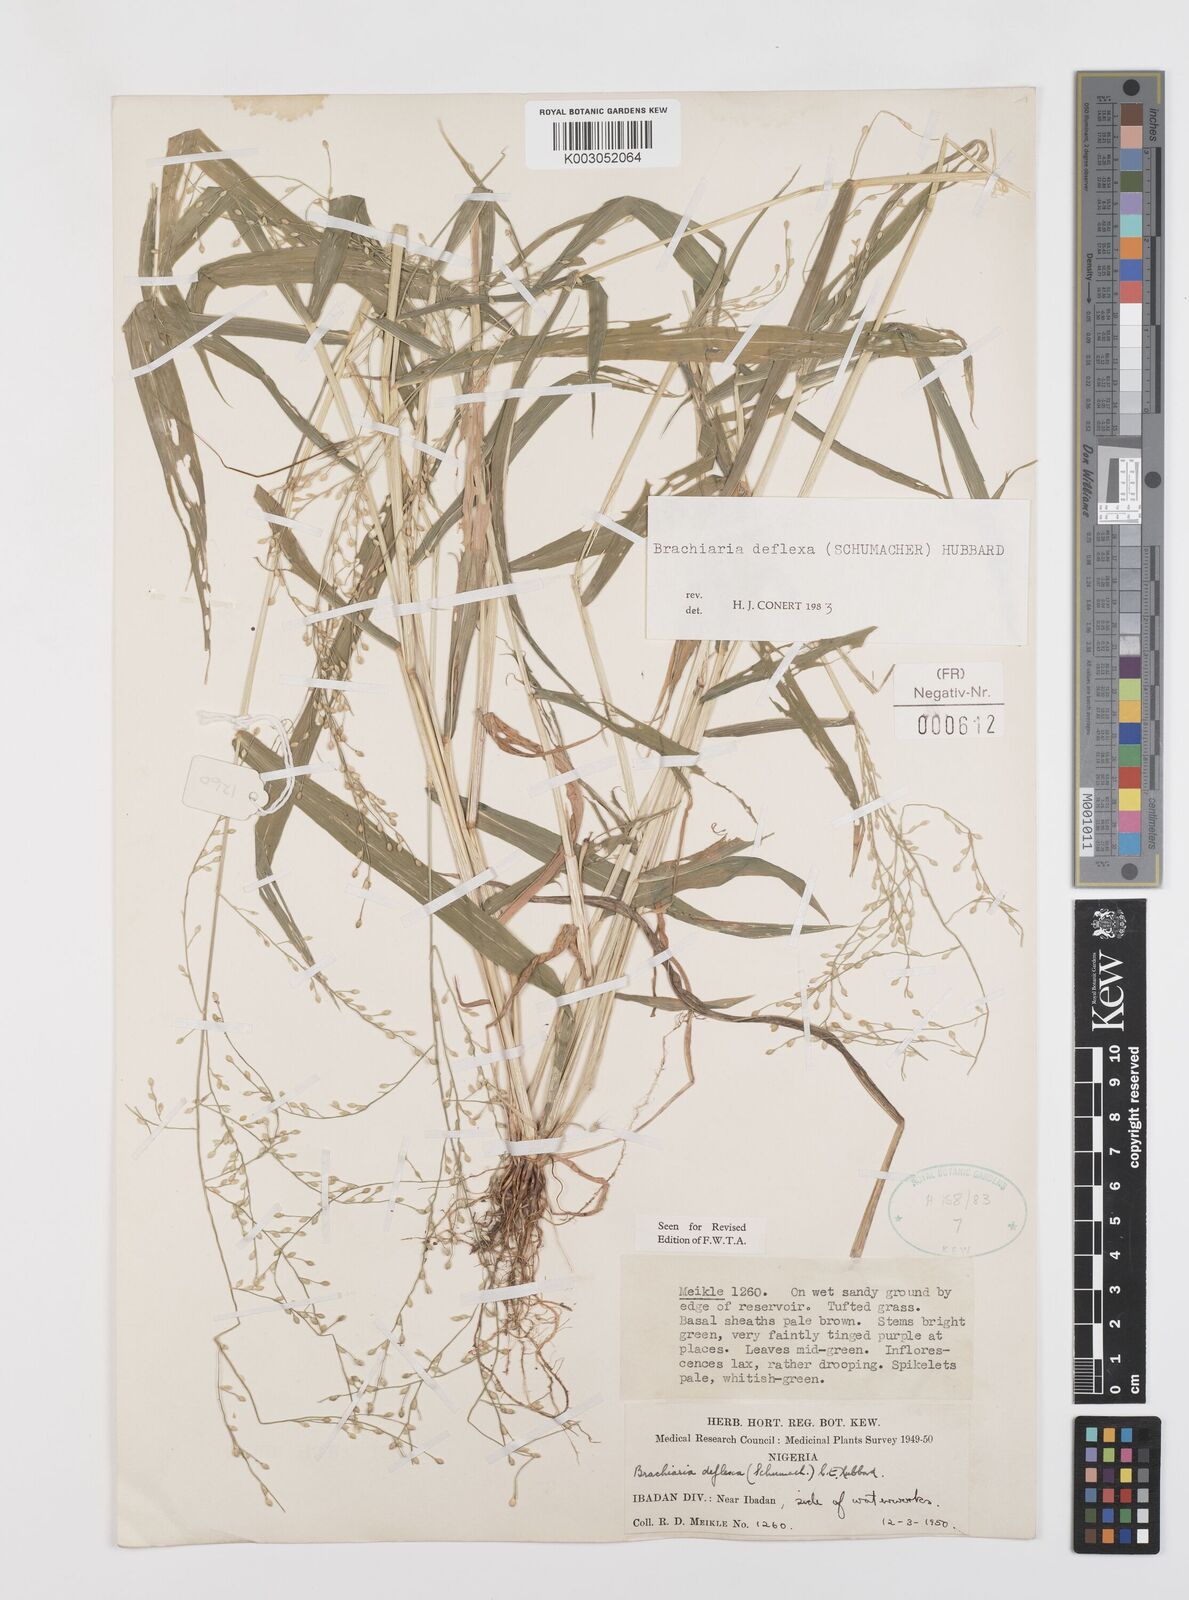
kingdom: Plantae
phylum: Tracheophyta
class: Liliopsida
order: Poales
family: Poaceae
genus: Urochloa
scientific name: Urochloa deflexa
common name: Guinea millet
